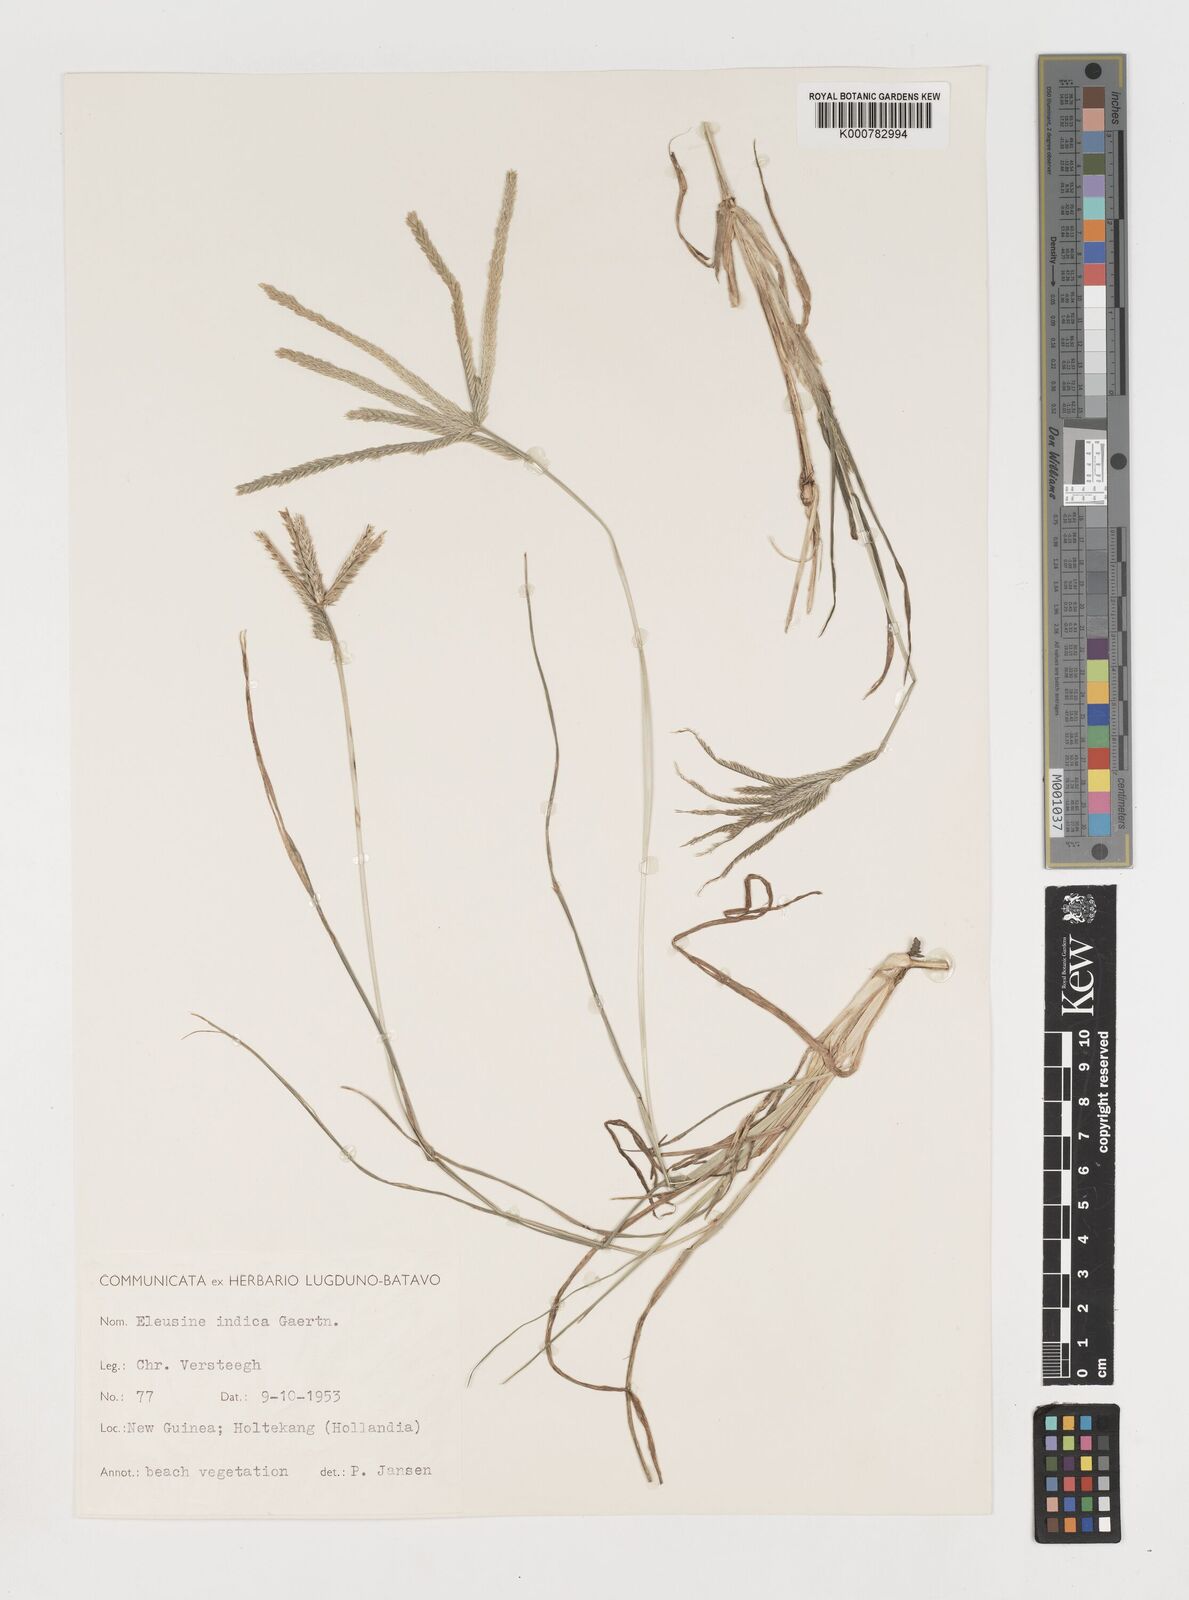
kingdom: Plantae
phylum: Tracheophyta
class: Liliopsida
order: Poales
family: Poaceae
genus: Eleusine
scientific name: Eleusine indica
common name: Yard-grass
